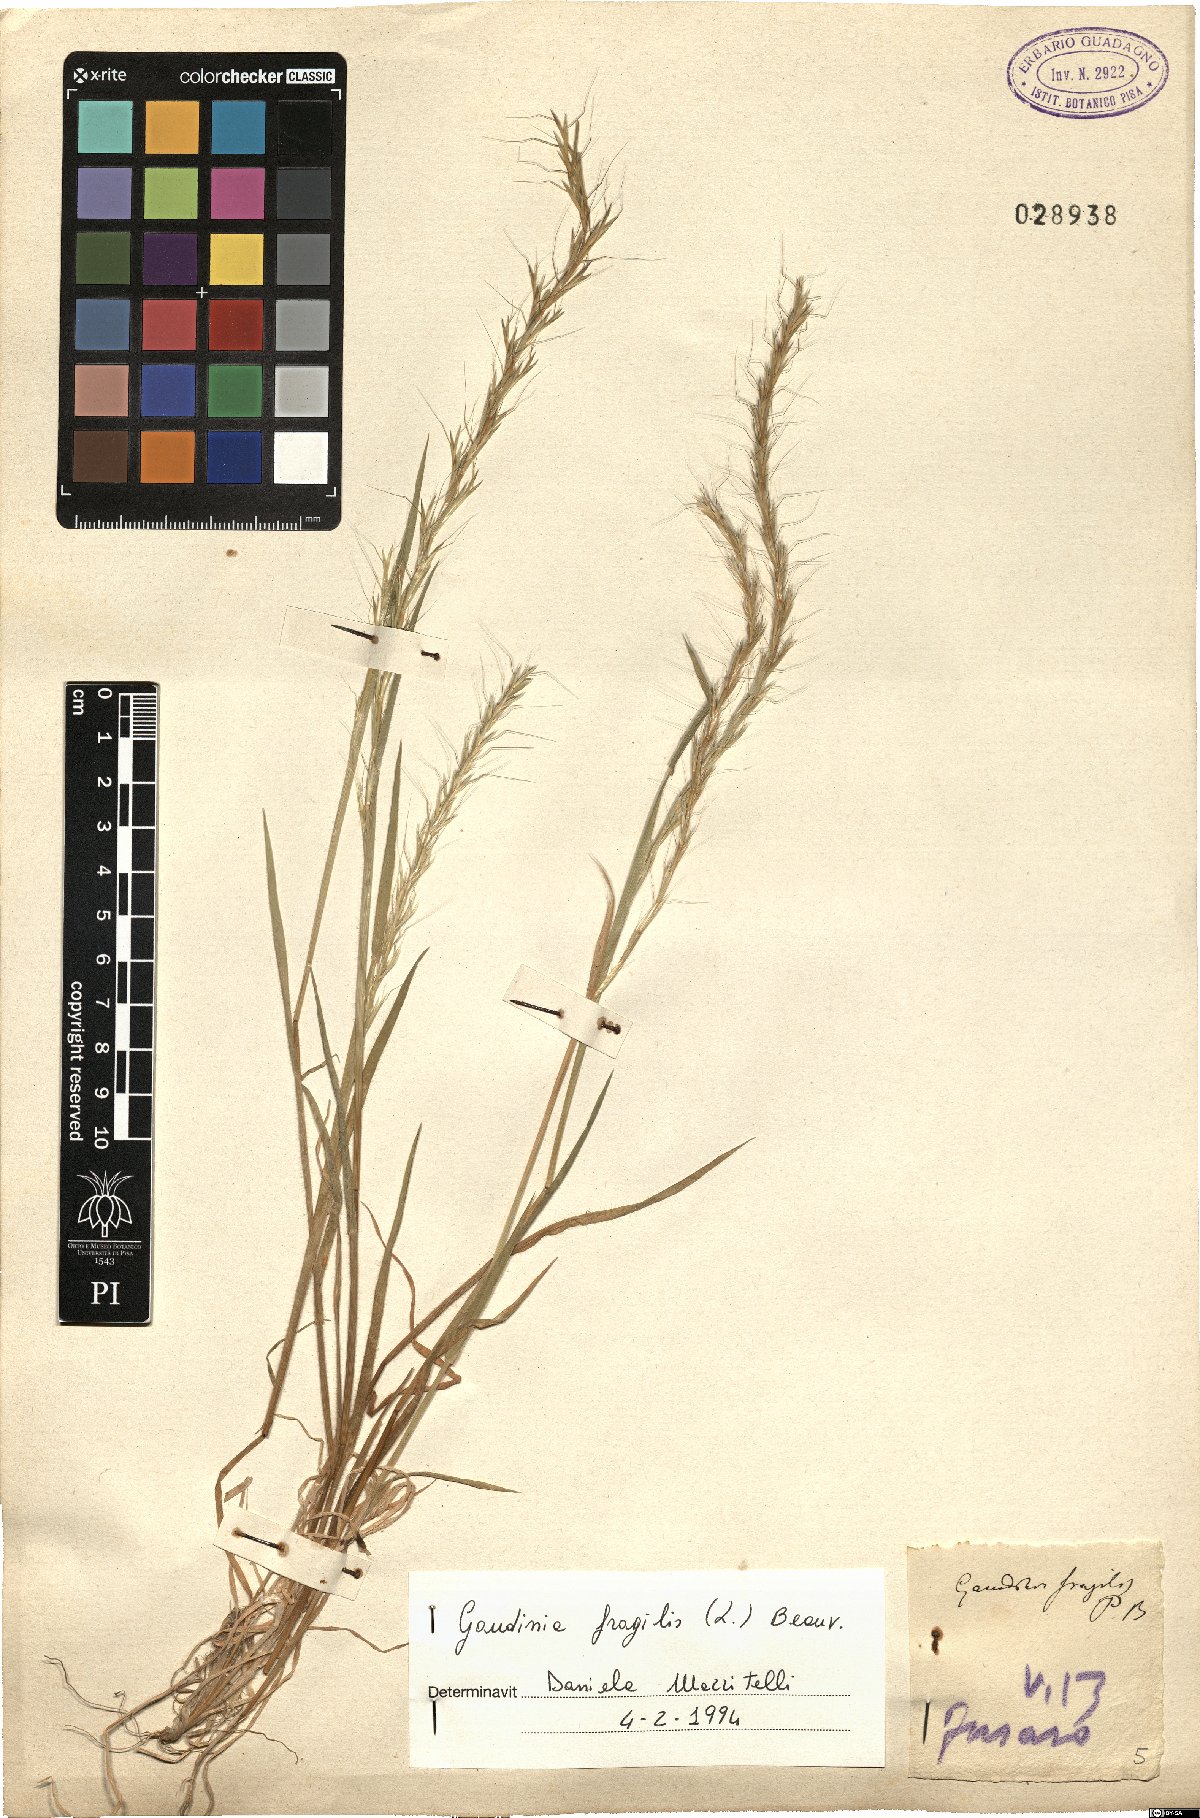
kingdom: Plantae
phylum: Tracheophyta
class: Liliopsida
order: Poales
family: Poaceae
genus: Gaudinia
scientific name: Gaudinia fragilis
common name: French oat-grass
